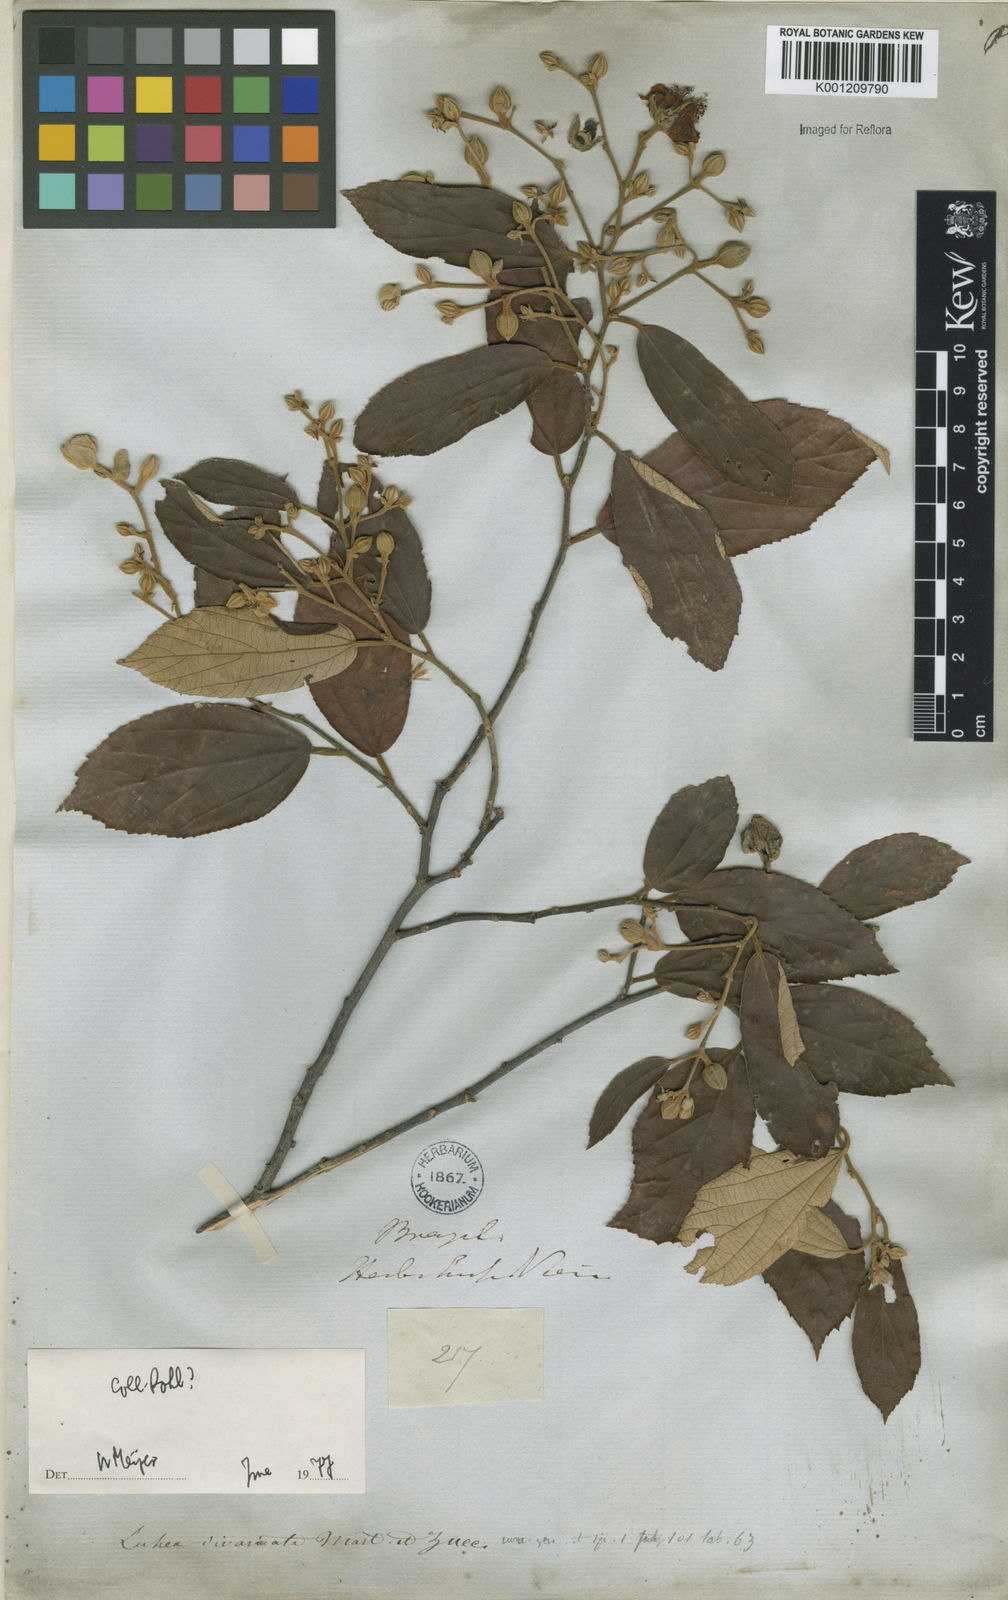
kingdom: Plantae
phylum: Tracheophyta
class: Magnoliopsida
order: Malvales
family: Malvaceae
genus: Luehea
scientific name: Luehea divaricata
